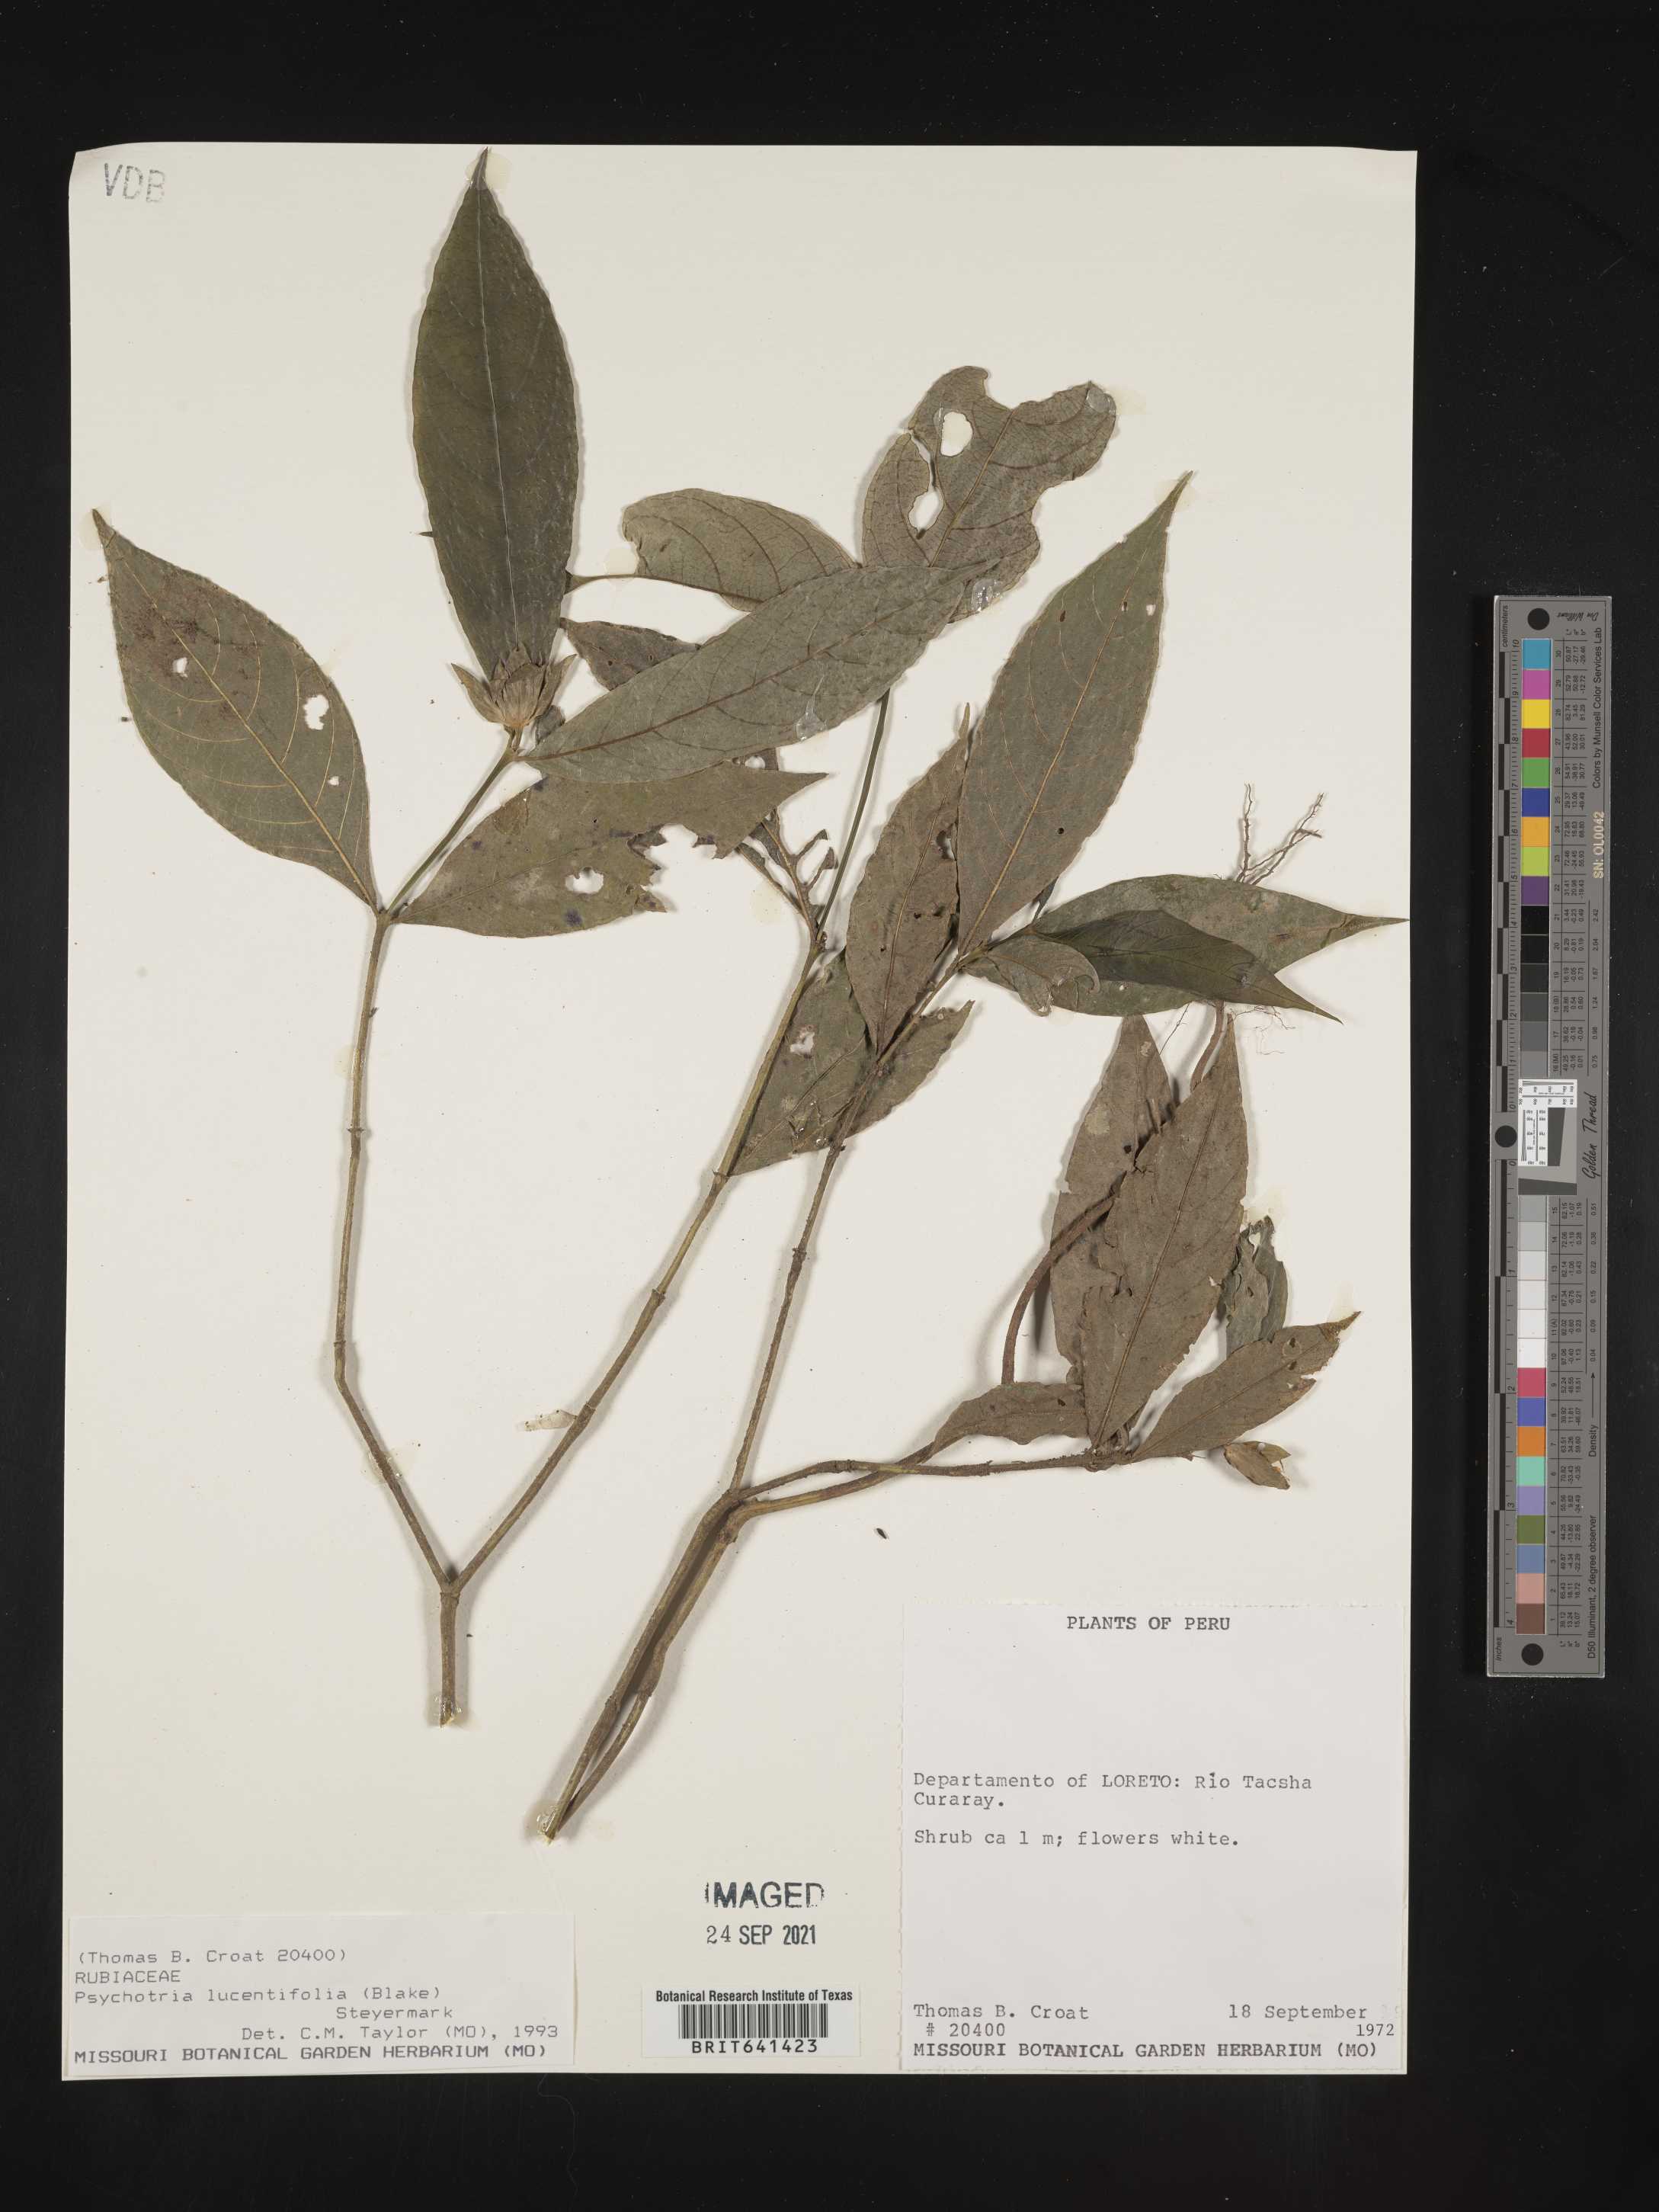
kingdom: Plantae
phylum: Tracheophyta
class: Magnoliopsida
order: Gentianales
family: Rubiaceae
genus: Psychotria
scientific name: Psychotria
